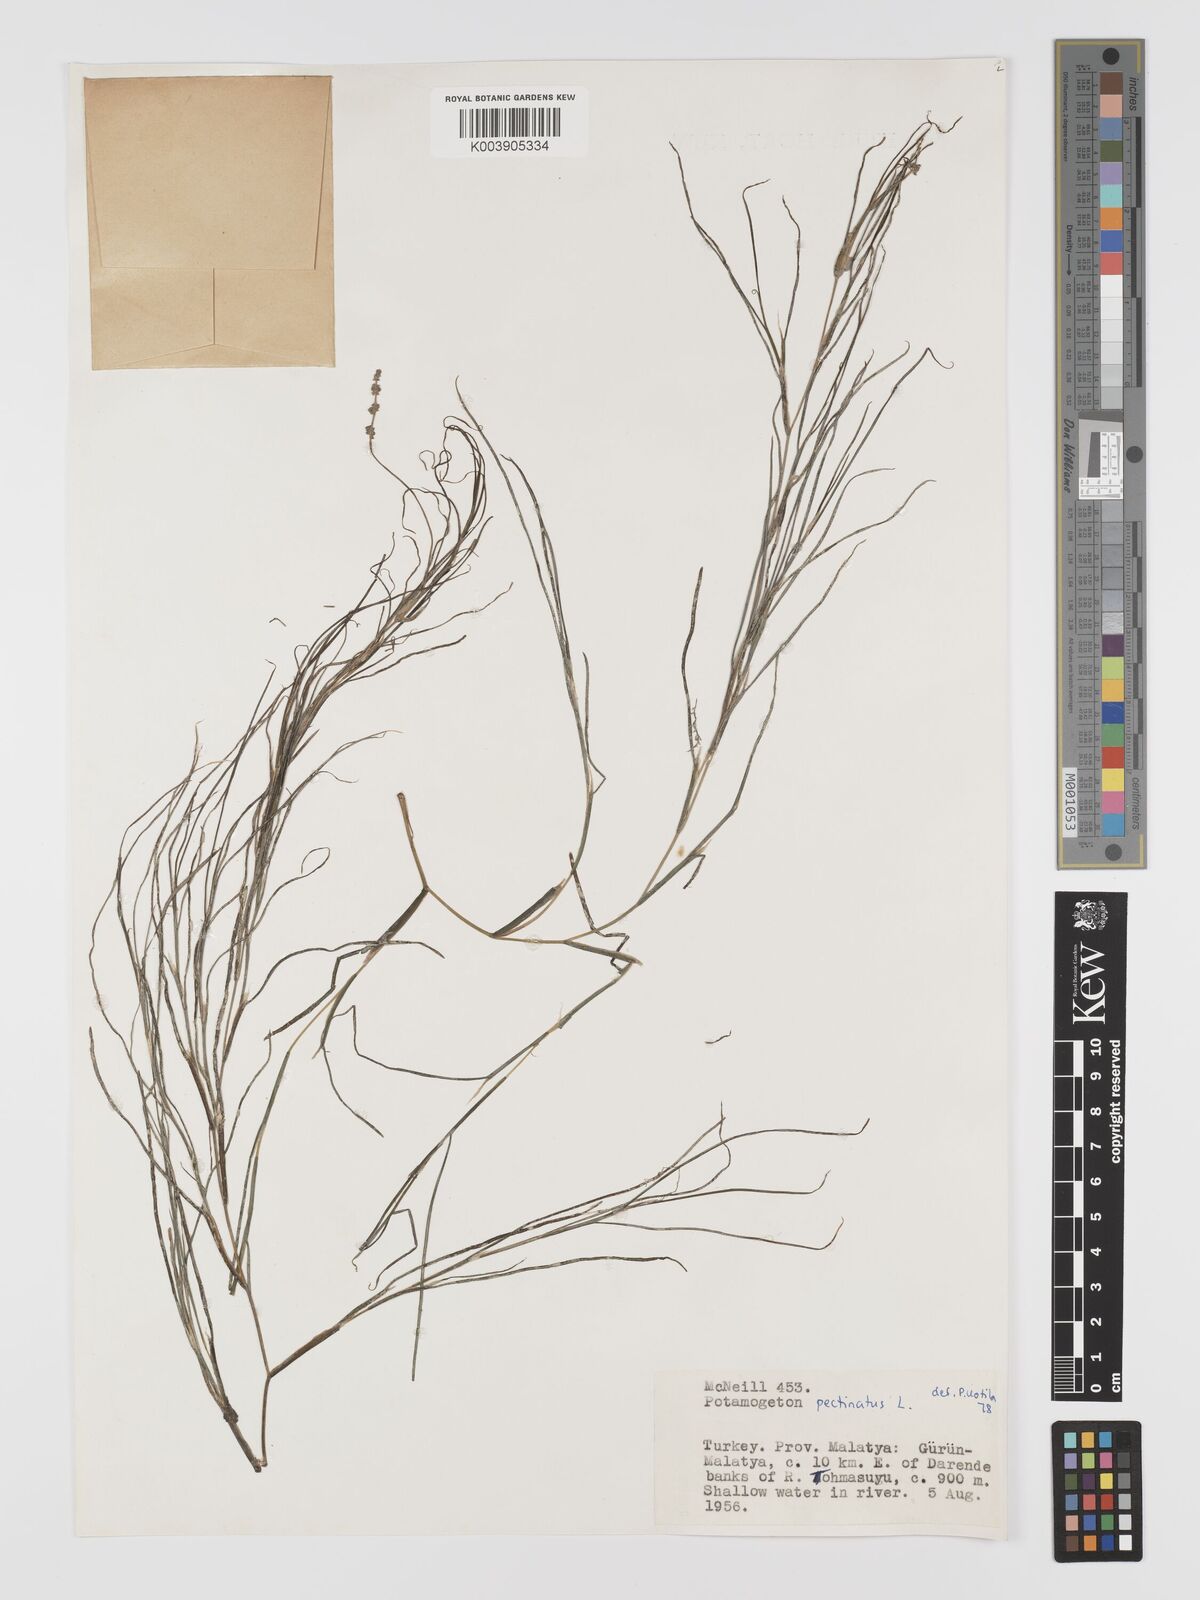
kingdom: Plantae
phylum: Tracheophyta
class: Liliopsida
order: Alismatales
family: Potamogetonaceae
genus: Stuckenia
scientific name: Stuckenia pectinata
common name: Sago pondweed
